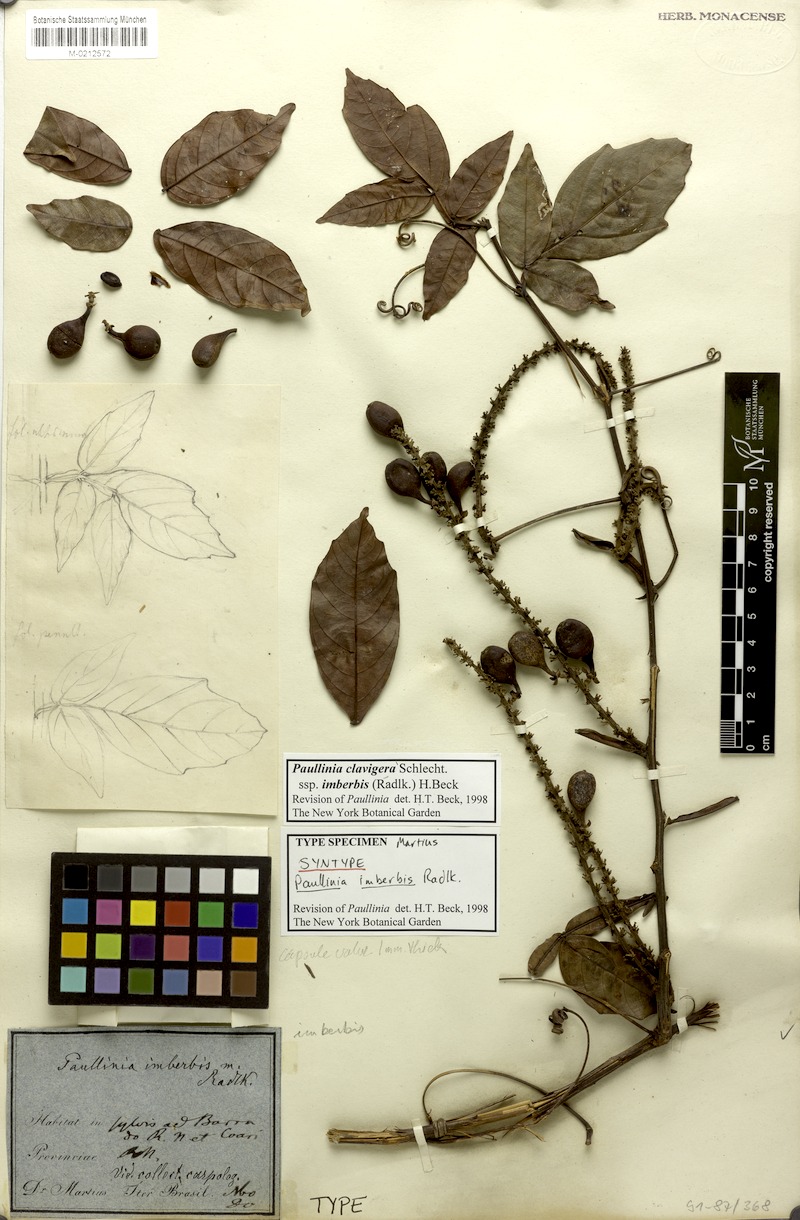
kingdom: Plantae
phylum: Tracheophyta
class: Magnoliopsida
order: Sapindales
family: Sapindaceae
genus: Paullinia
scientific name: Paullinia clavigera
